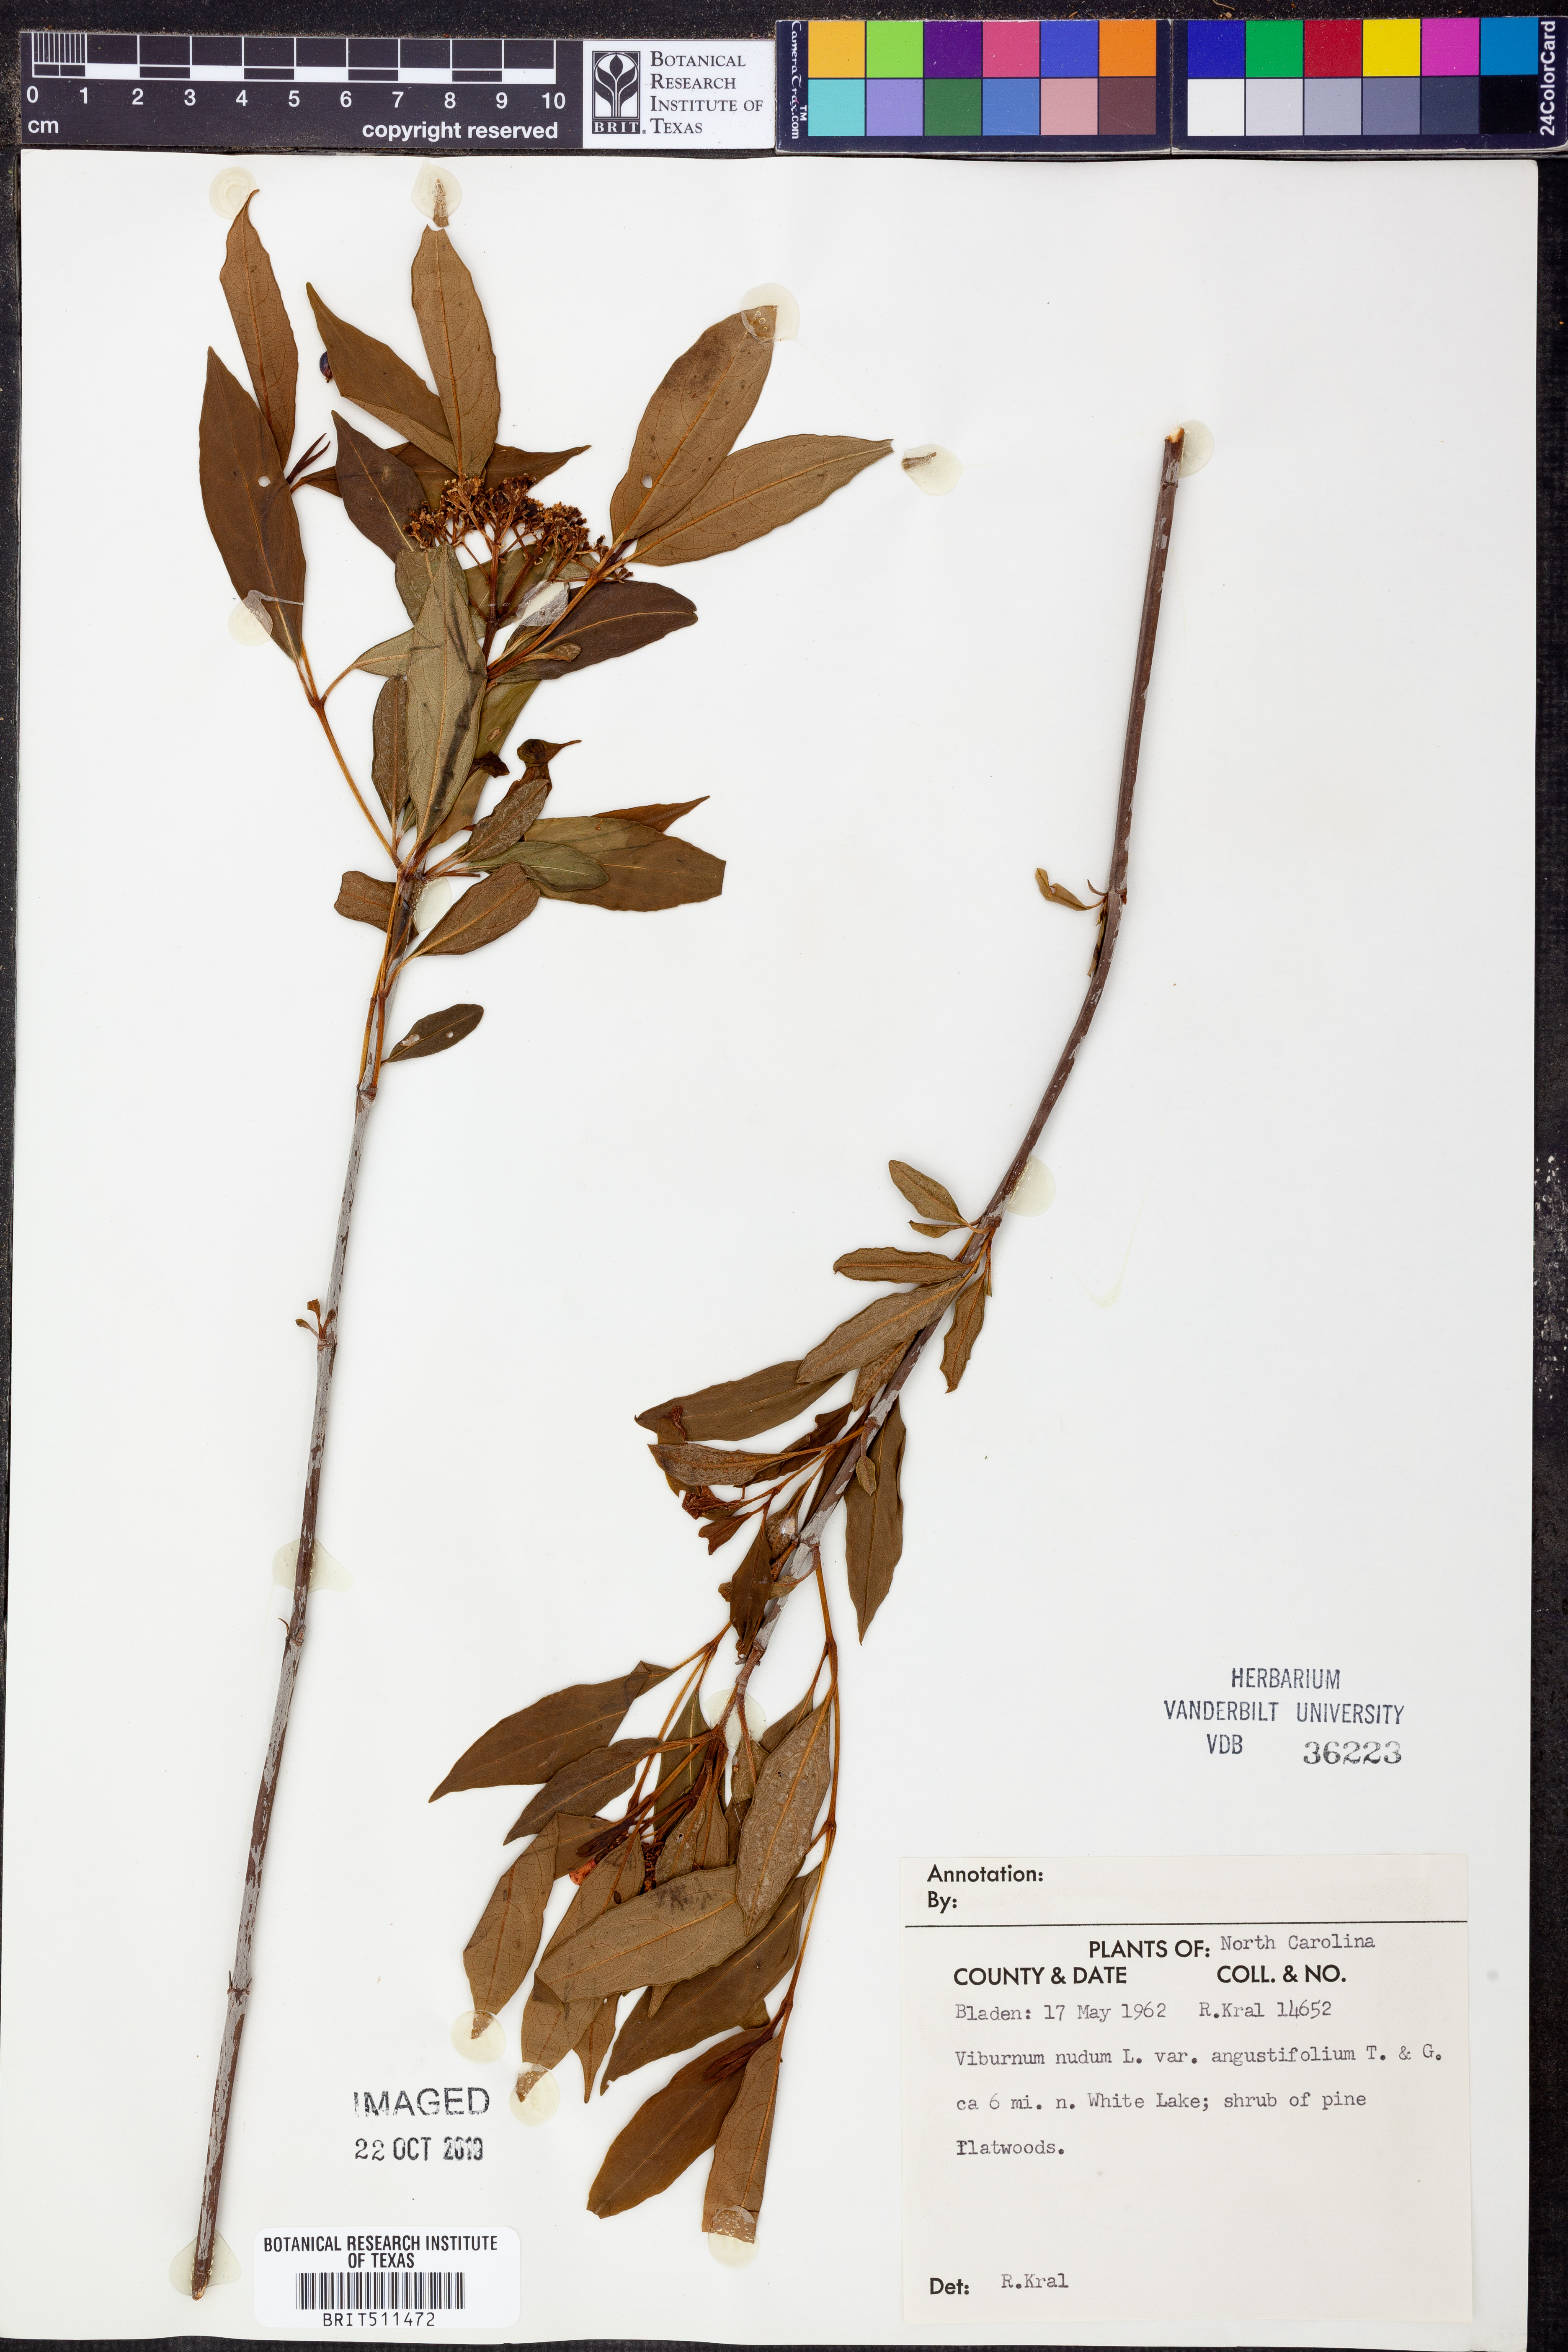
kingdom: Plantae
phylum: Tracheophyta
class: Magnoliopsida
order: Dipsacales
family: Viburnaceae
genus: Viburnum
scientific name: Viburnum cassinoides
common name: Swamp haw
